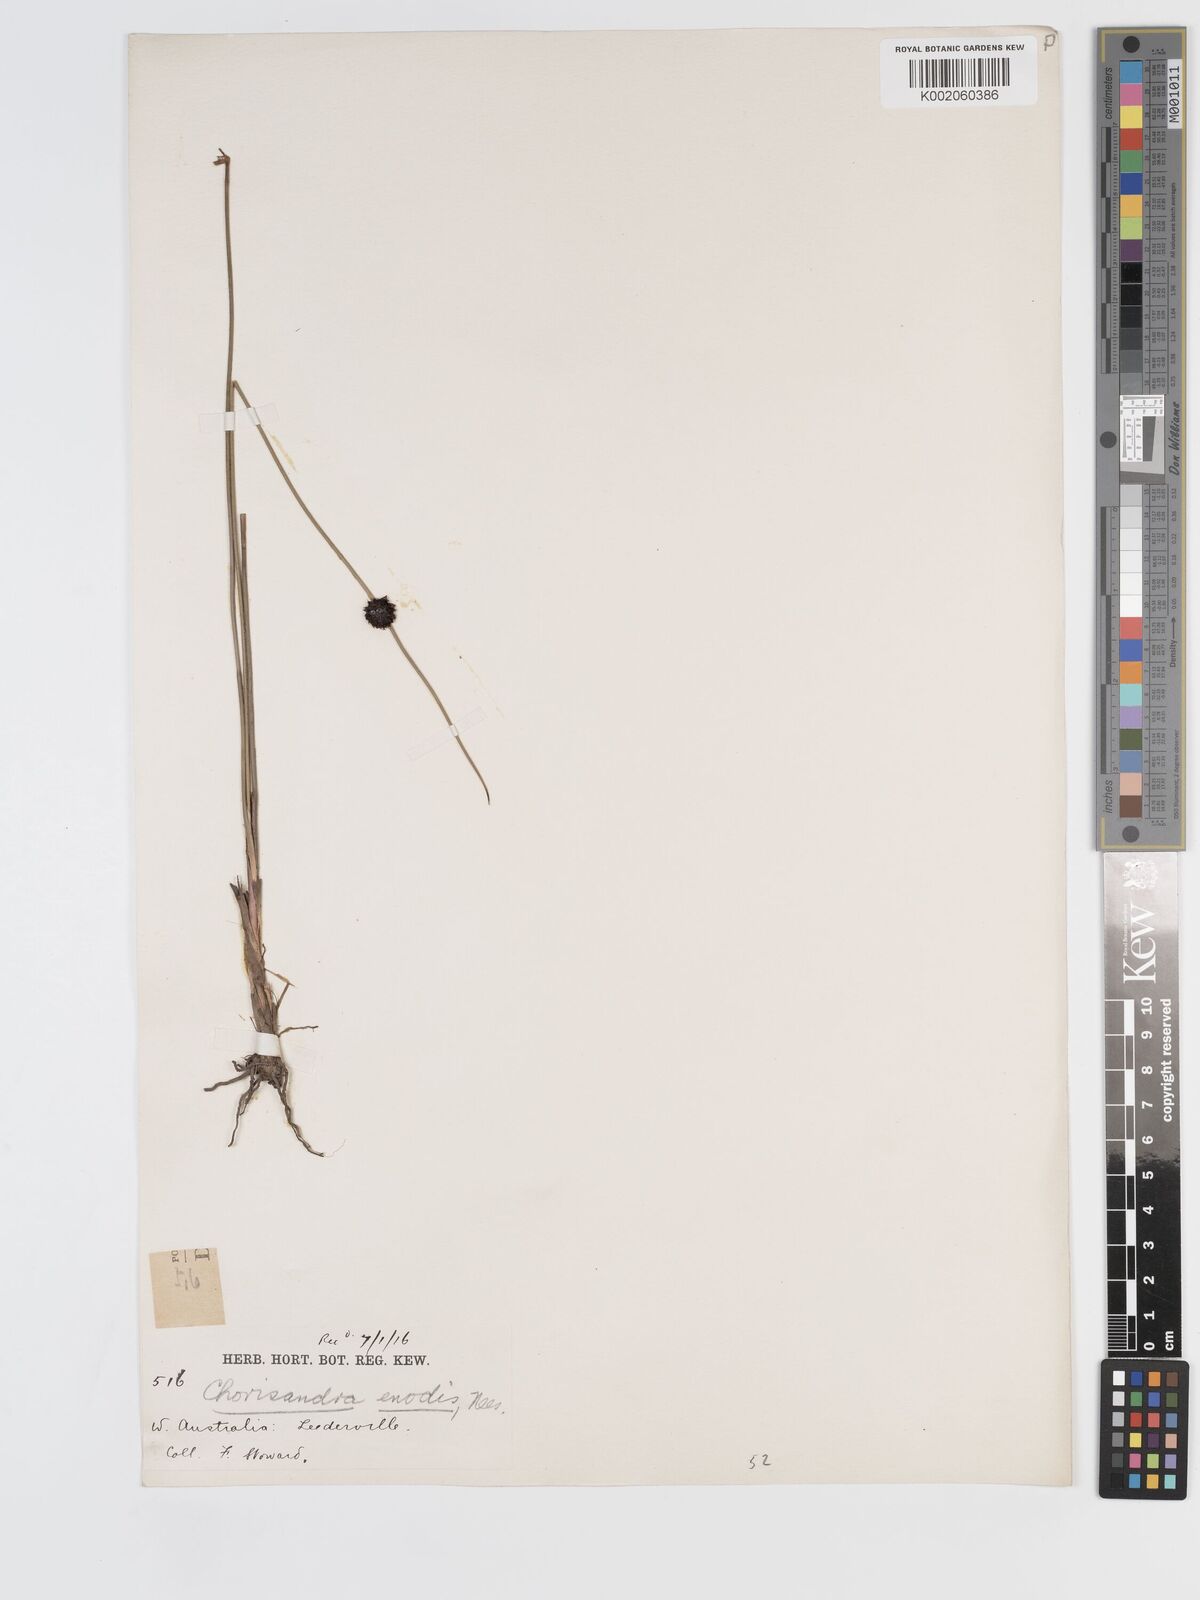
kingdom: Plantae
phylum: Tracheophyta
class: Liliopsida
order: Poales
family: Cyperaceae
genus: Chorizandra
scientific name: Chorizandra enodis
